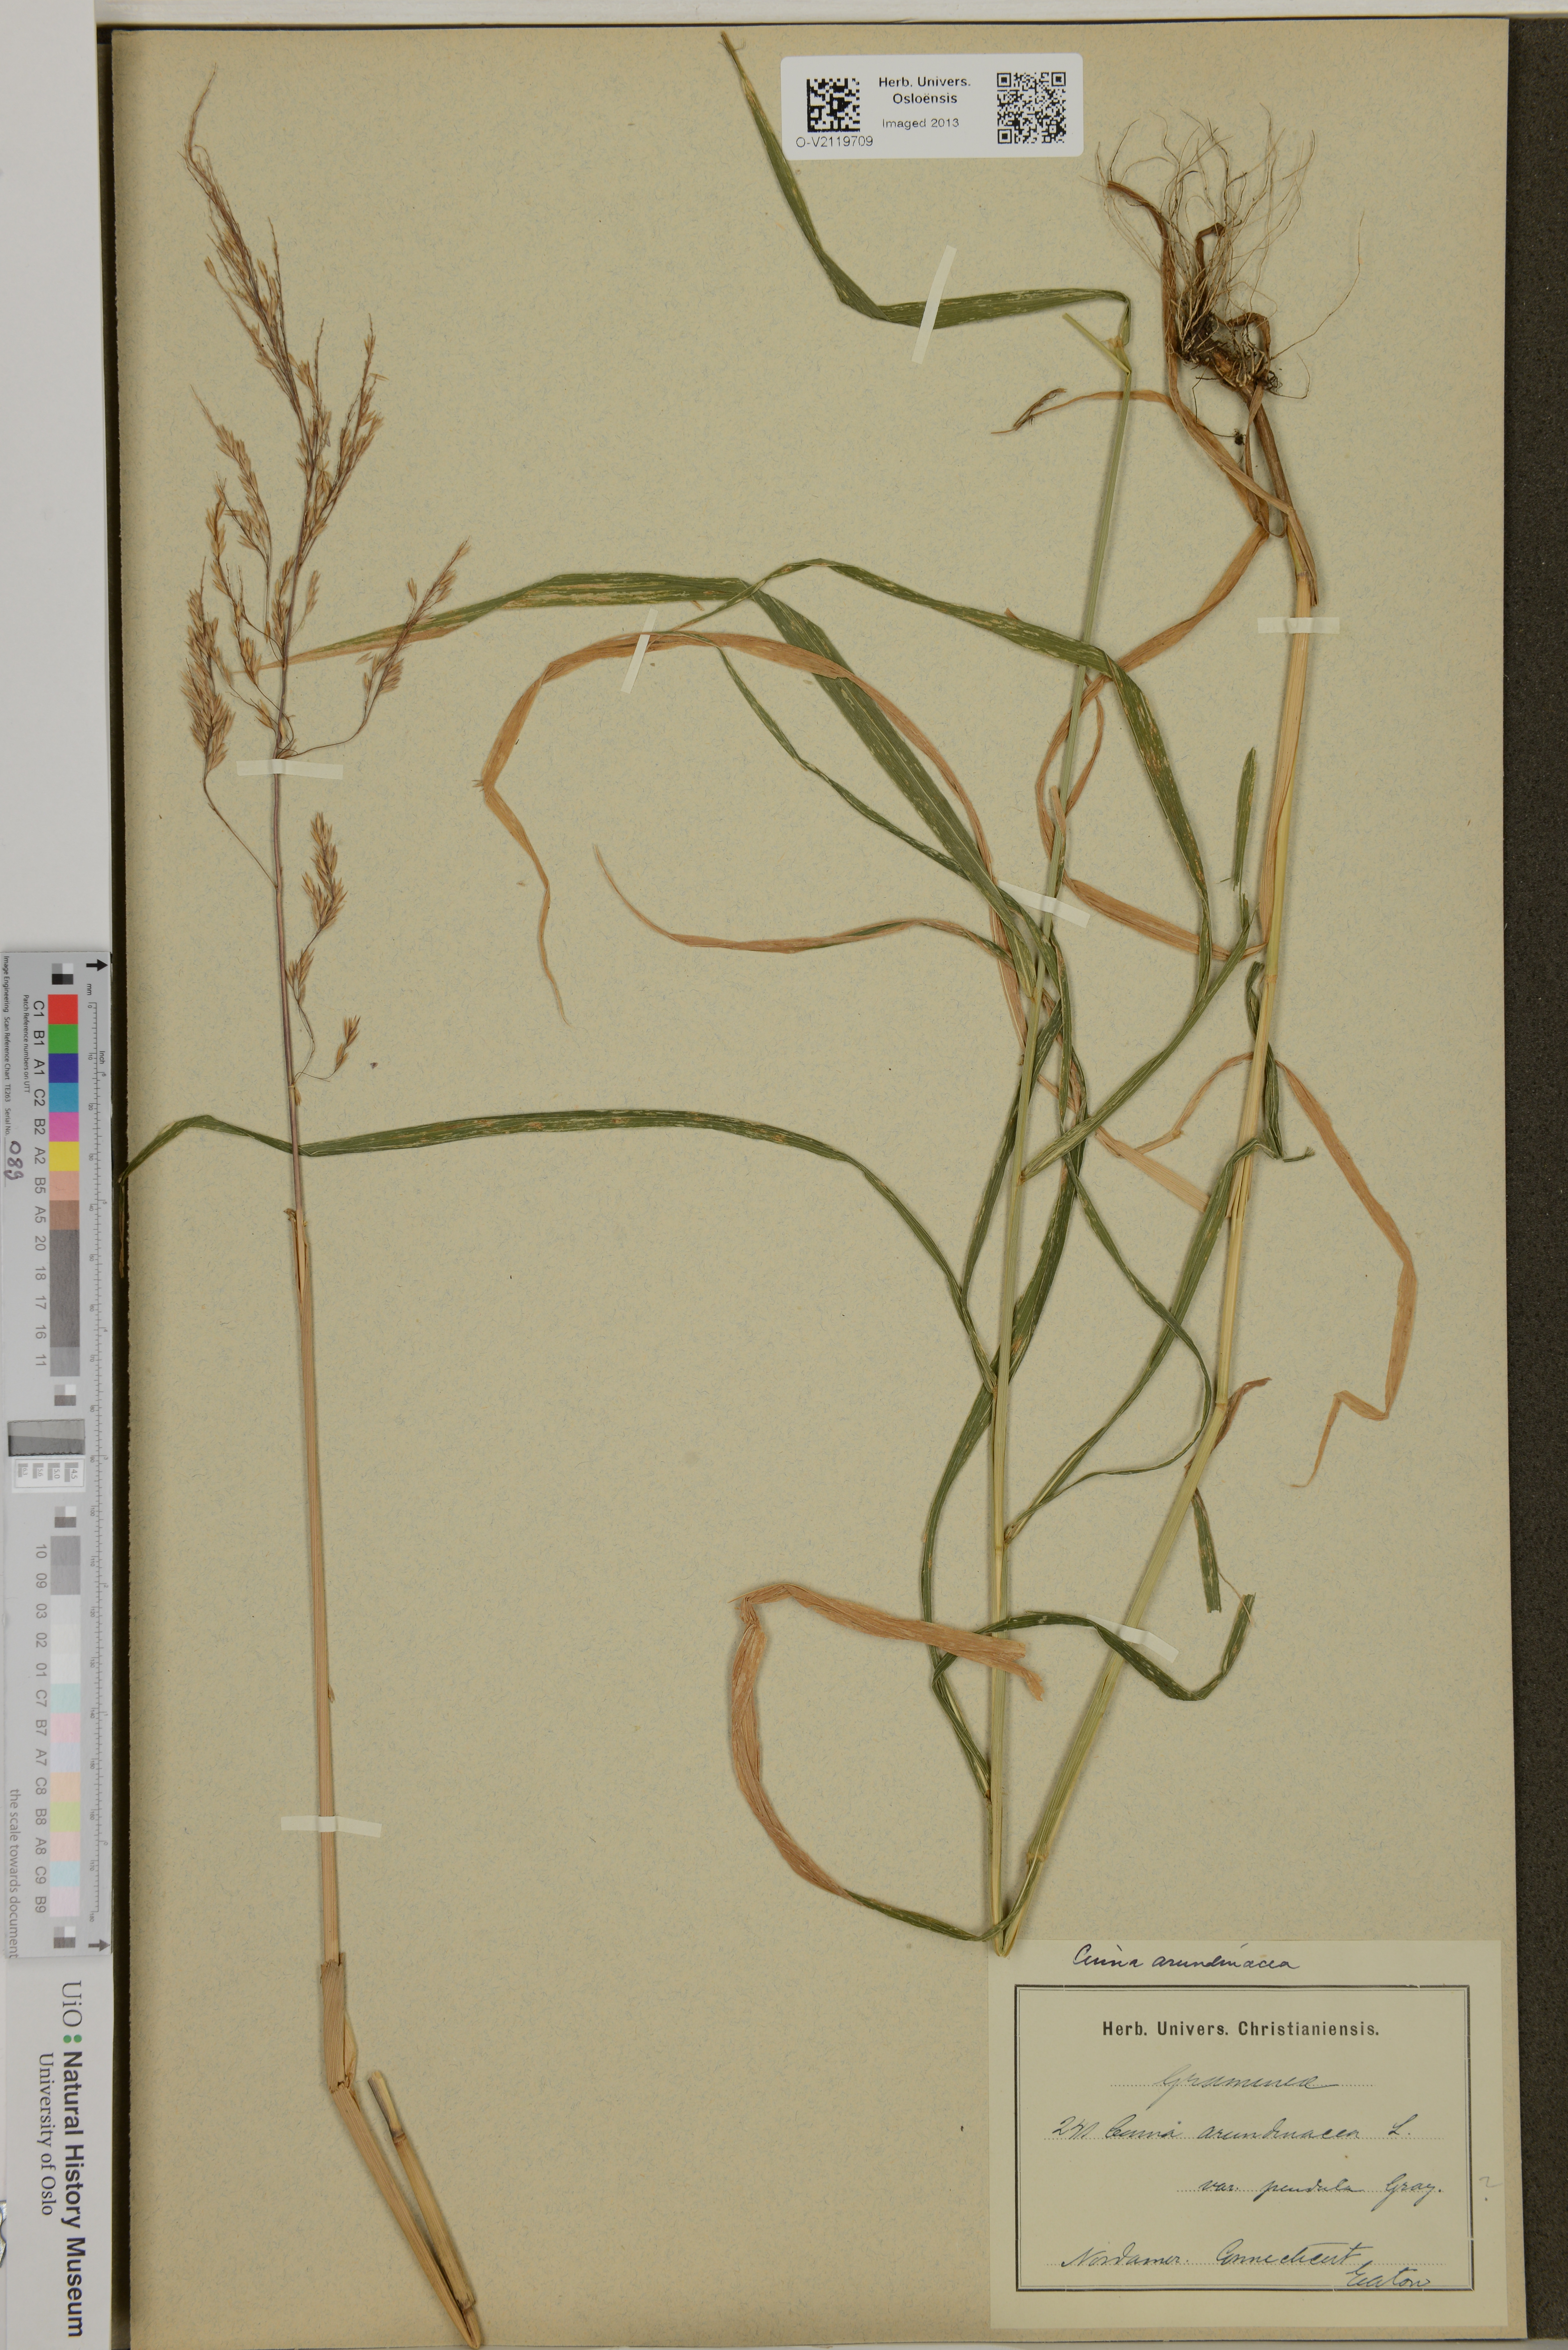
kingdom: Plantae
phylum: Tracheophyta
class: Liliopsida
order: Poales
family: Poaceae
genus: Cinna
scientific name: Cinna arundinacea
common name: Stout woodreed
